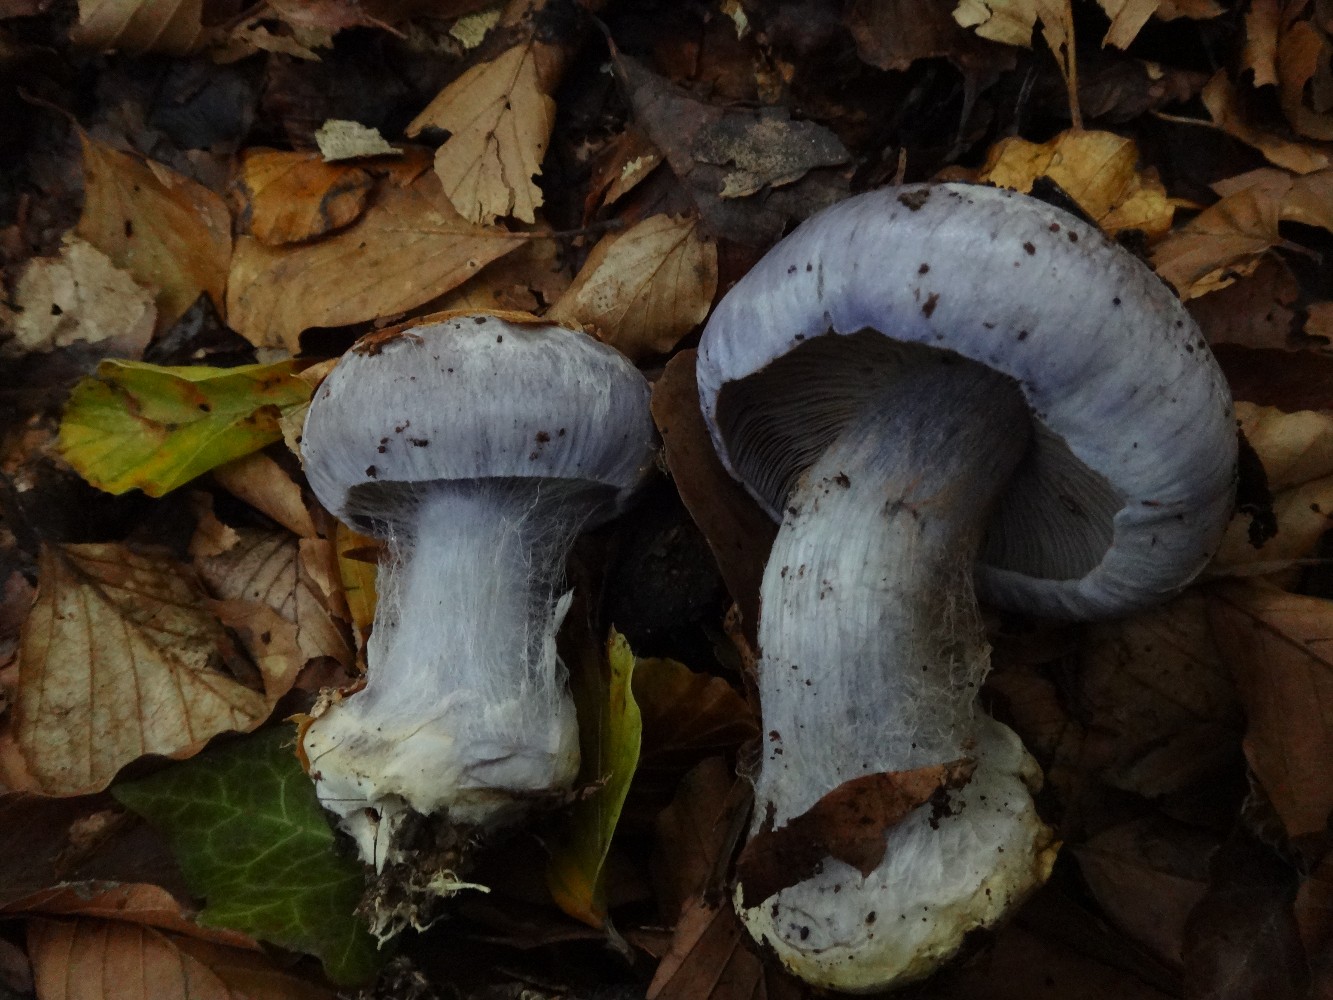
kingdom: Fungi
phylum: Basidiomycota
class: Agaricomycetes
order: Agaricales
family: Cortinariaceae
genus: Cortinarius
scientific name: Cortinarius caerulescens
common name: blåkødet slørhat
